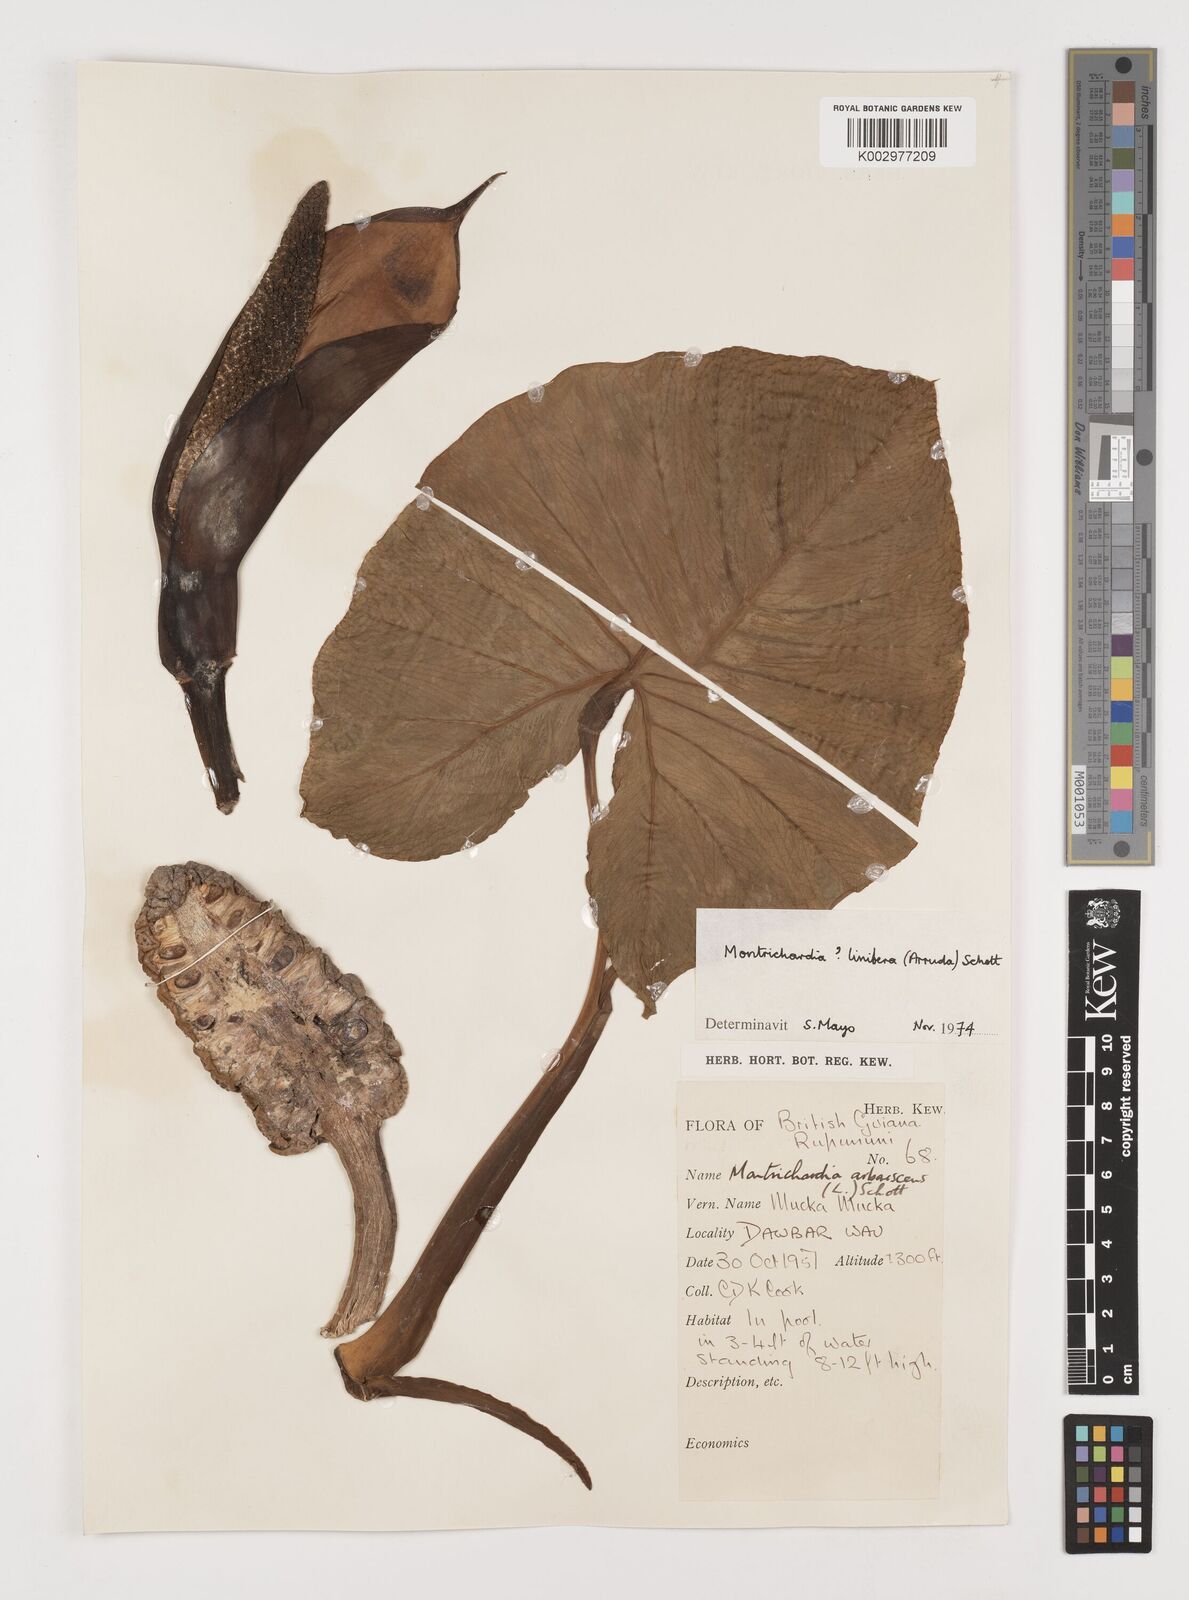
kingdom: Plantae
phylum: Tracheophyta
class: Liliopsida
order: Alismatales
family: Araceae
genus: Montrichardia
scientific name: Montrichardia linifera
